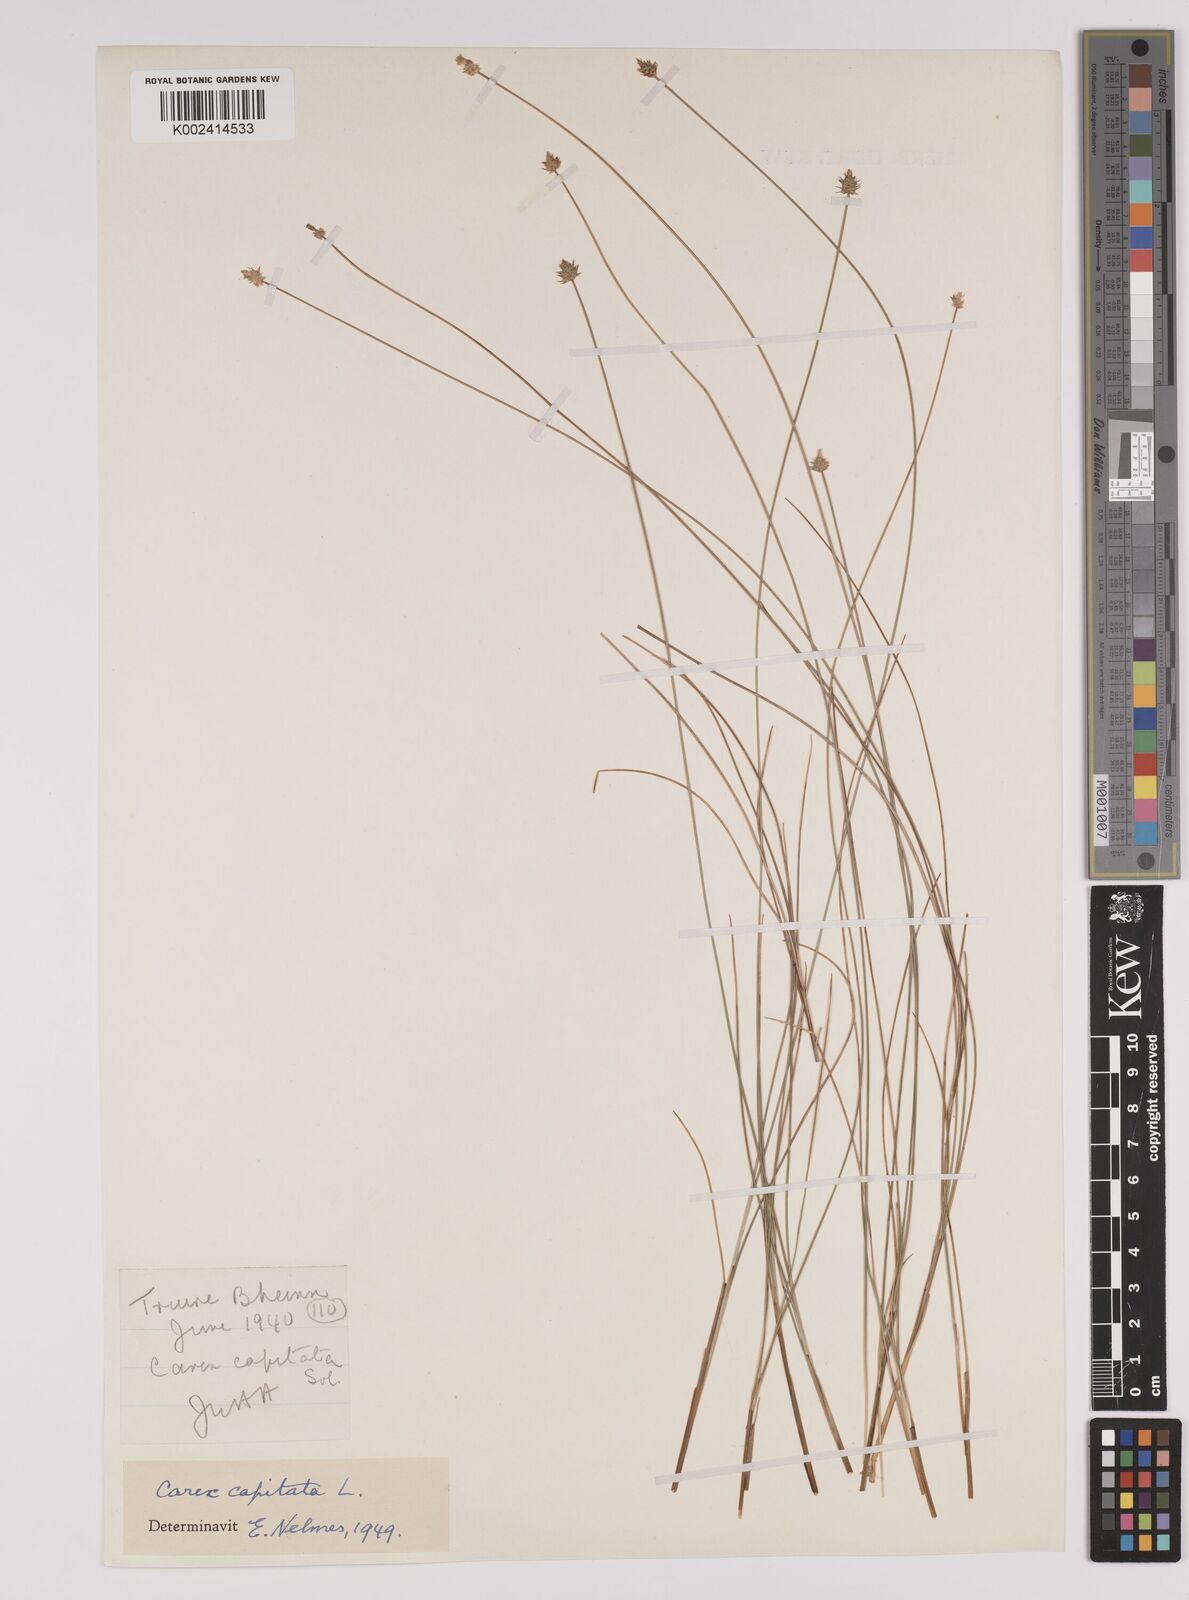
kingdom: Plantae
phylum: Tracheophyta
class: Liliopsida
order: Poales
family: Cyperaceae
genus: Carex
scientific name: Carex capitata
